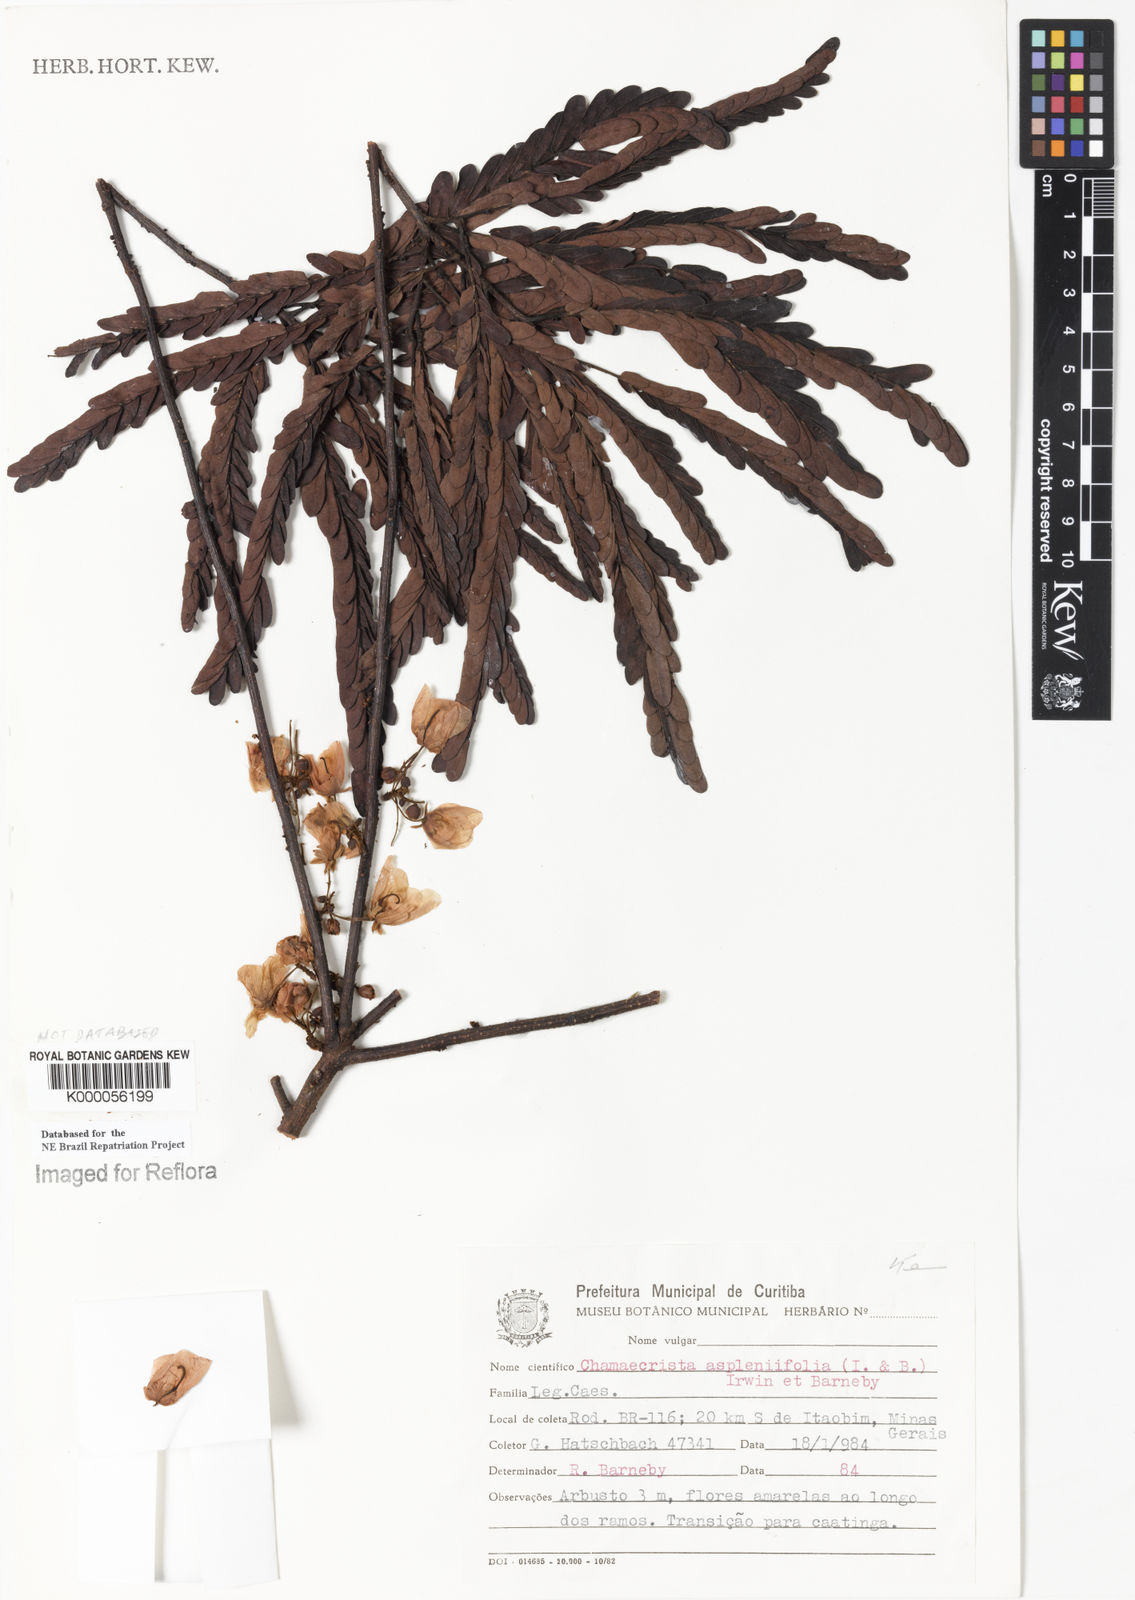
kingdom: Plantae
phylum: Tracheophyta
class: Magnoliopsida
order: Fabales
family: Fabaceae
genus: Chamaecrista
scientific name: Chamaecrista aspleniifolia
